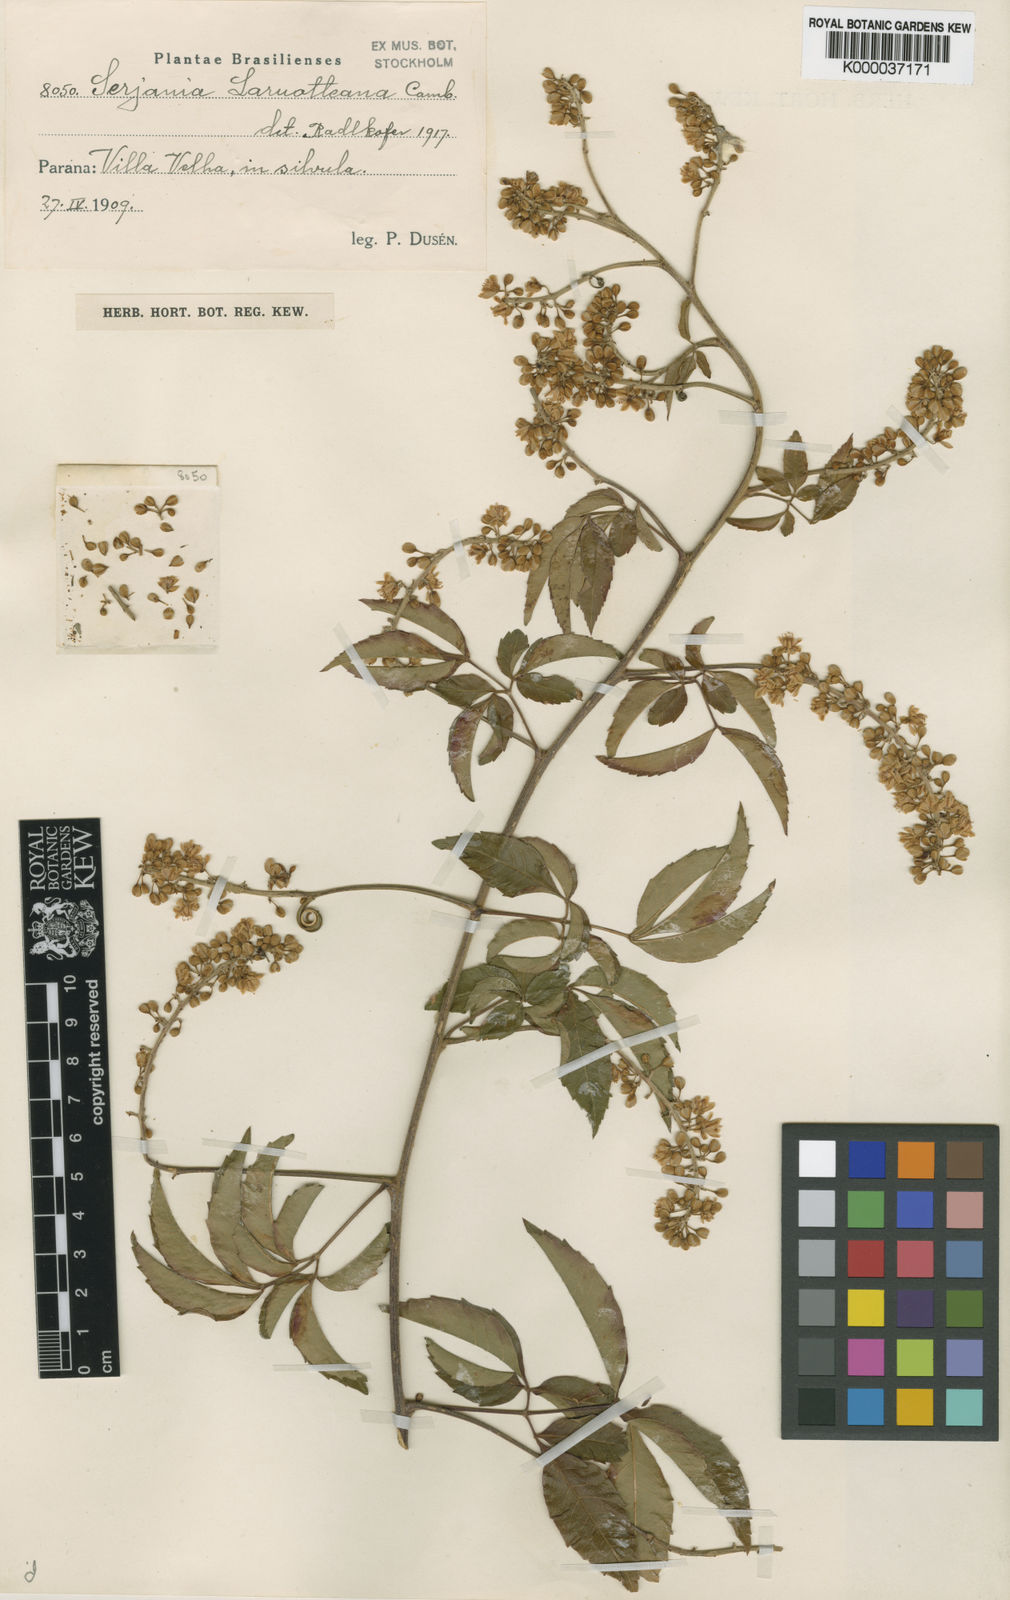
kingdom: Plantae
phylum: Tracheophyta
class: Magnoliopsida
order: Sapindales
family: Sapindaceae
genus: Serjania
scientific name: Serjania laruotteana
